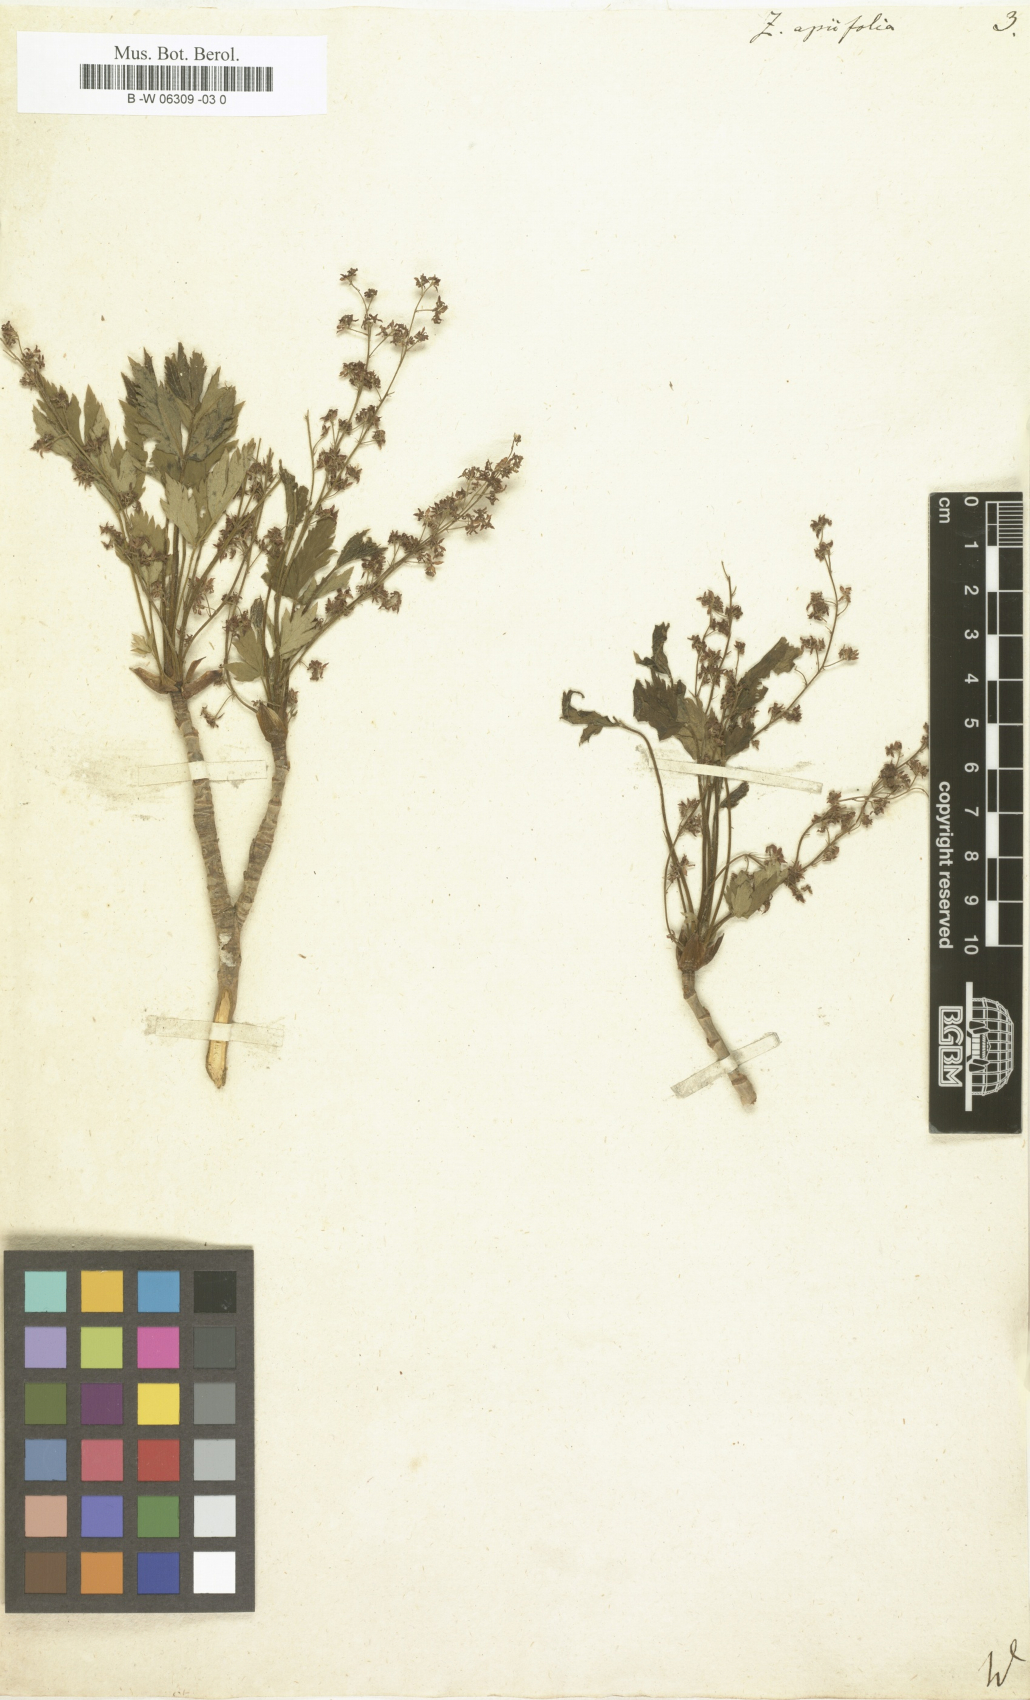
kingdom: Plantae
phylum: Tracheophyta
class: Magnoliopsida
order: Ranunculales
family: Ranunculaceae
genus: Xanthorhiza
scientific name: Xanthorhiza simplicissima
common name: Yellowroot
